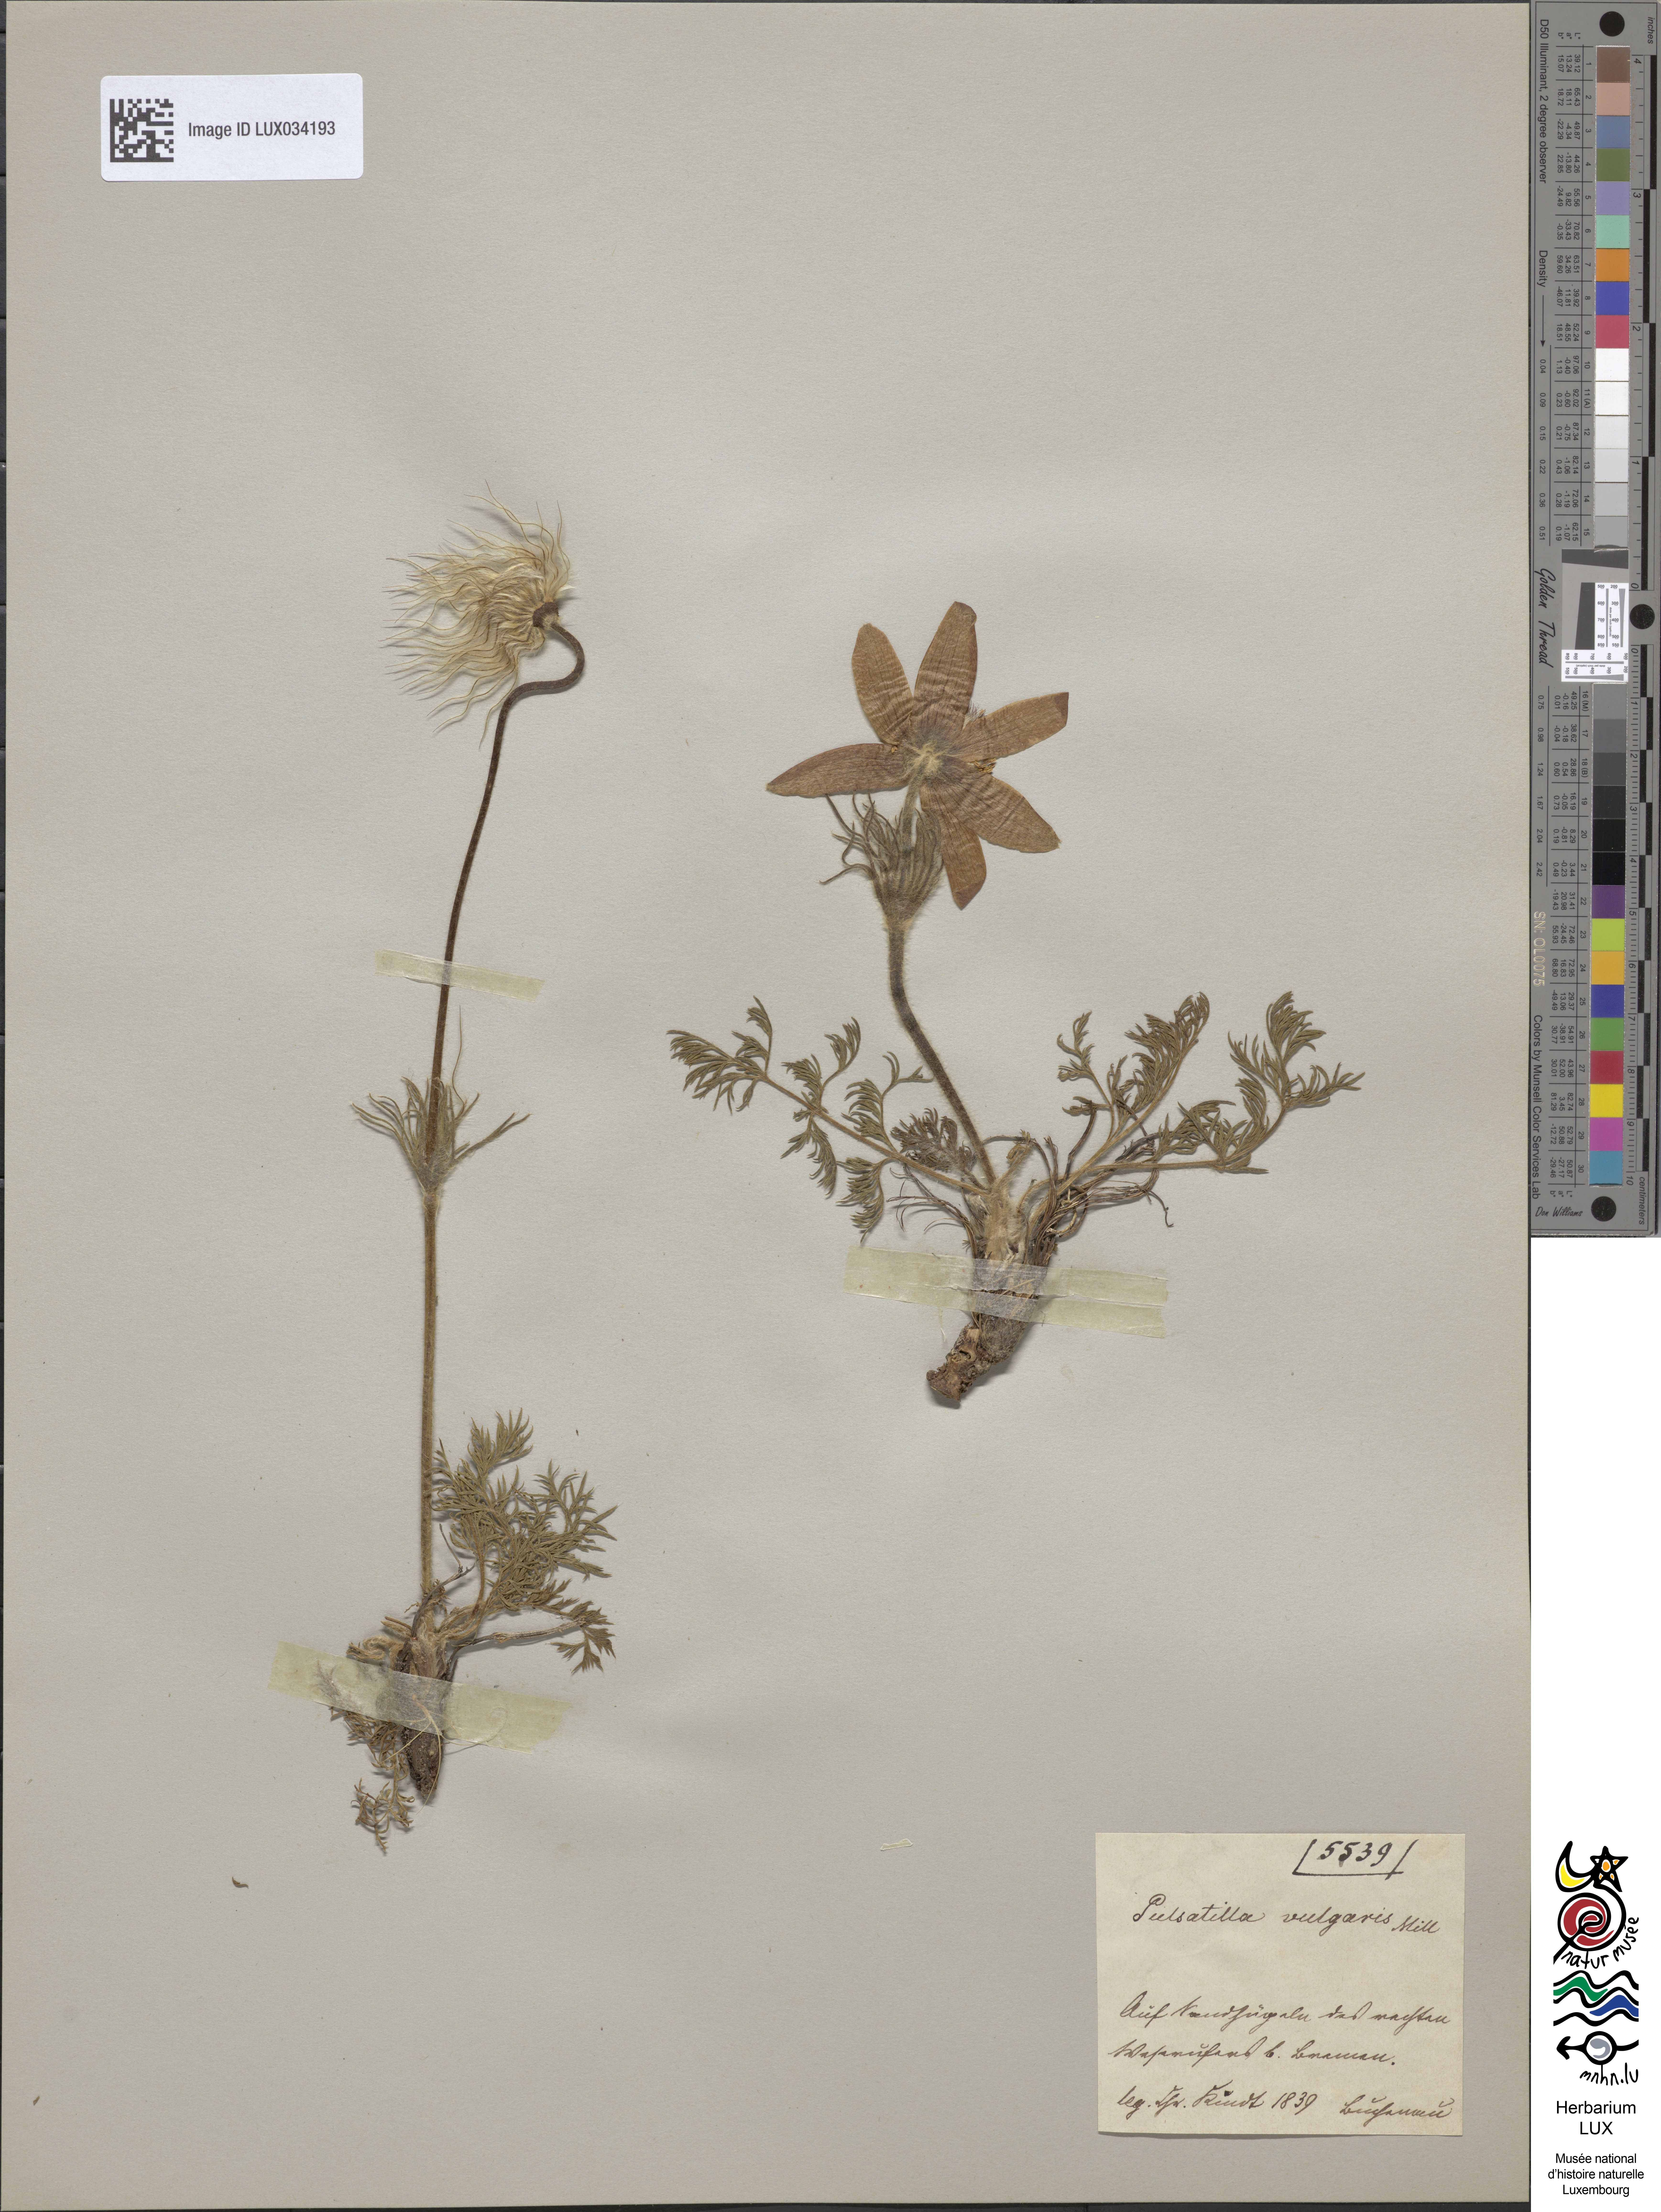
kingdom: Plantae
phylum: Tracheophyta
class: Magnoliopsida
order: Ranunculales
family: Ranunculaceae
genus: Pulsatilla
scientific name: Pulsatilla vulgaris
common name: Pasqueflower
